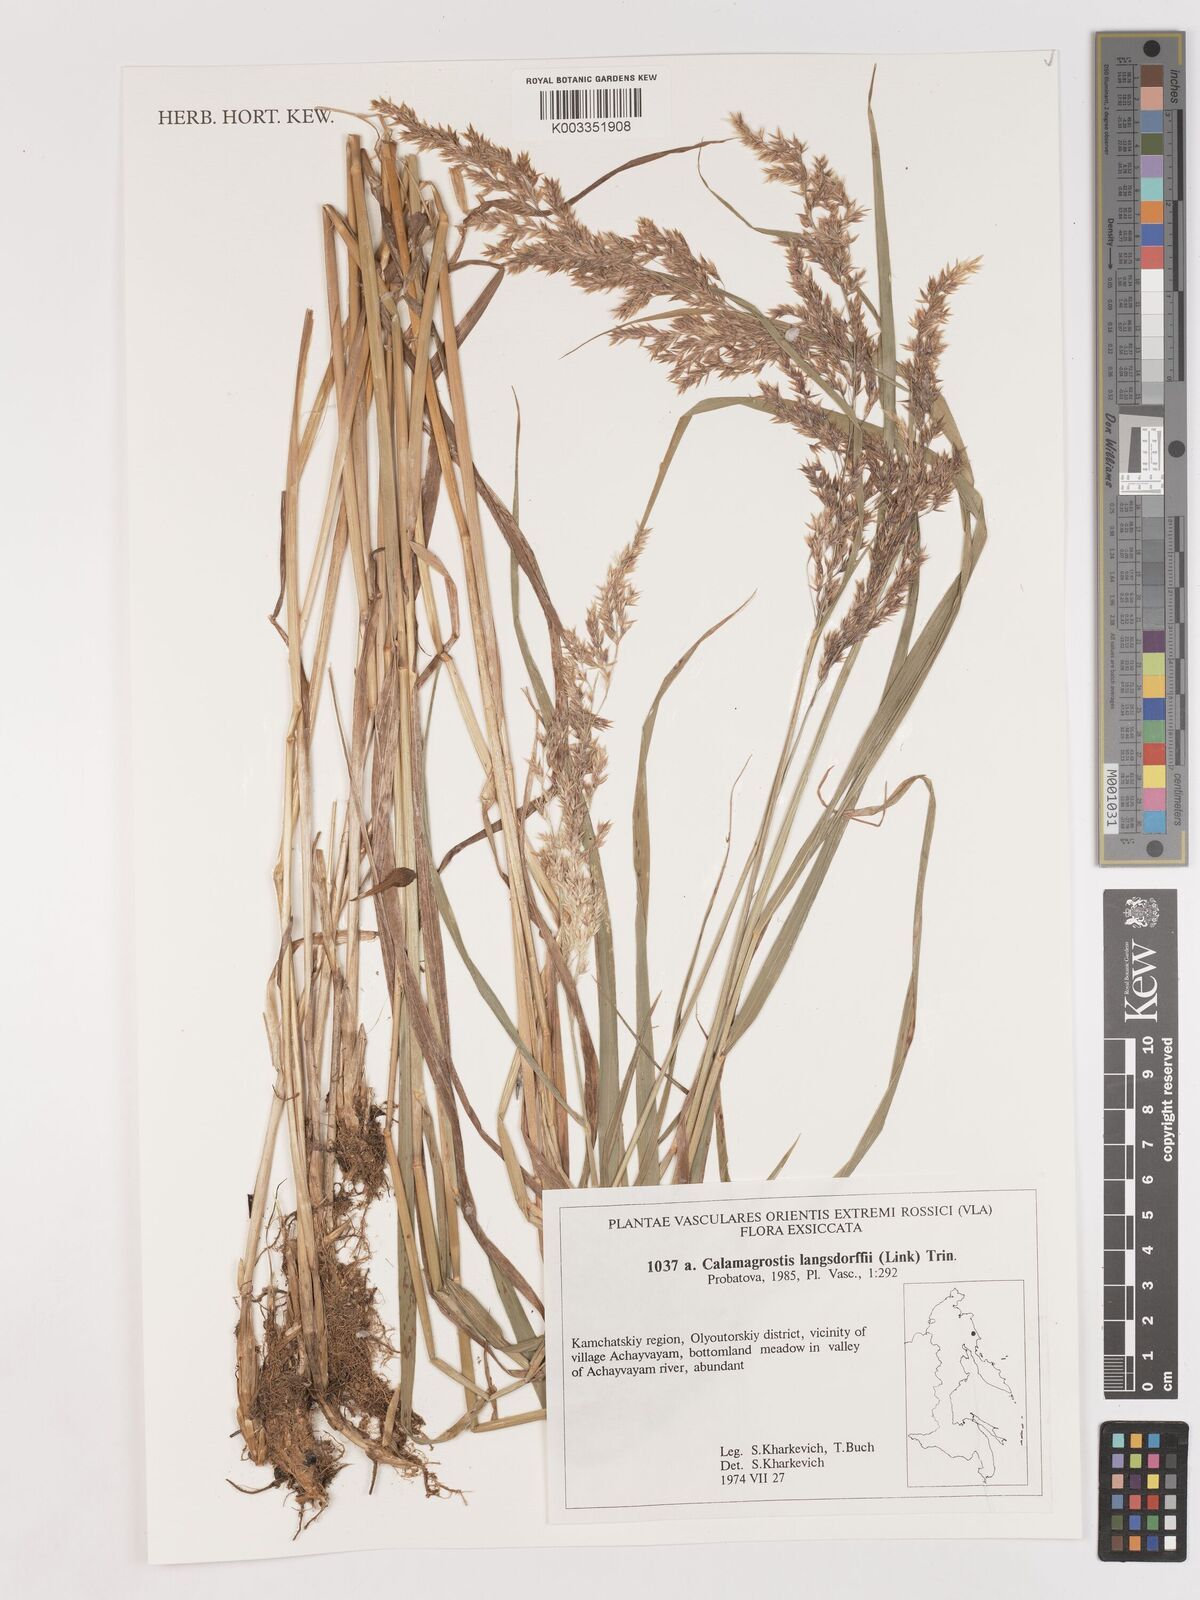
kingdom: Plantae
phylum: Tracheophyta
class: Liliopsida
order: Poales
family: Poaceae
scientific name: Poaceae
